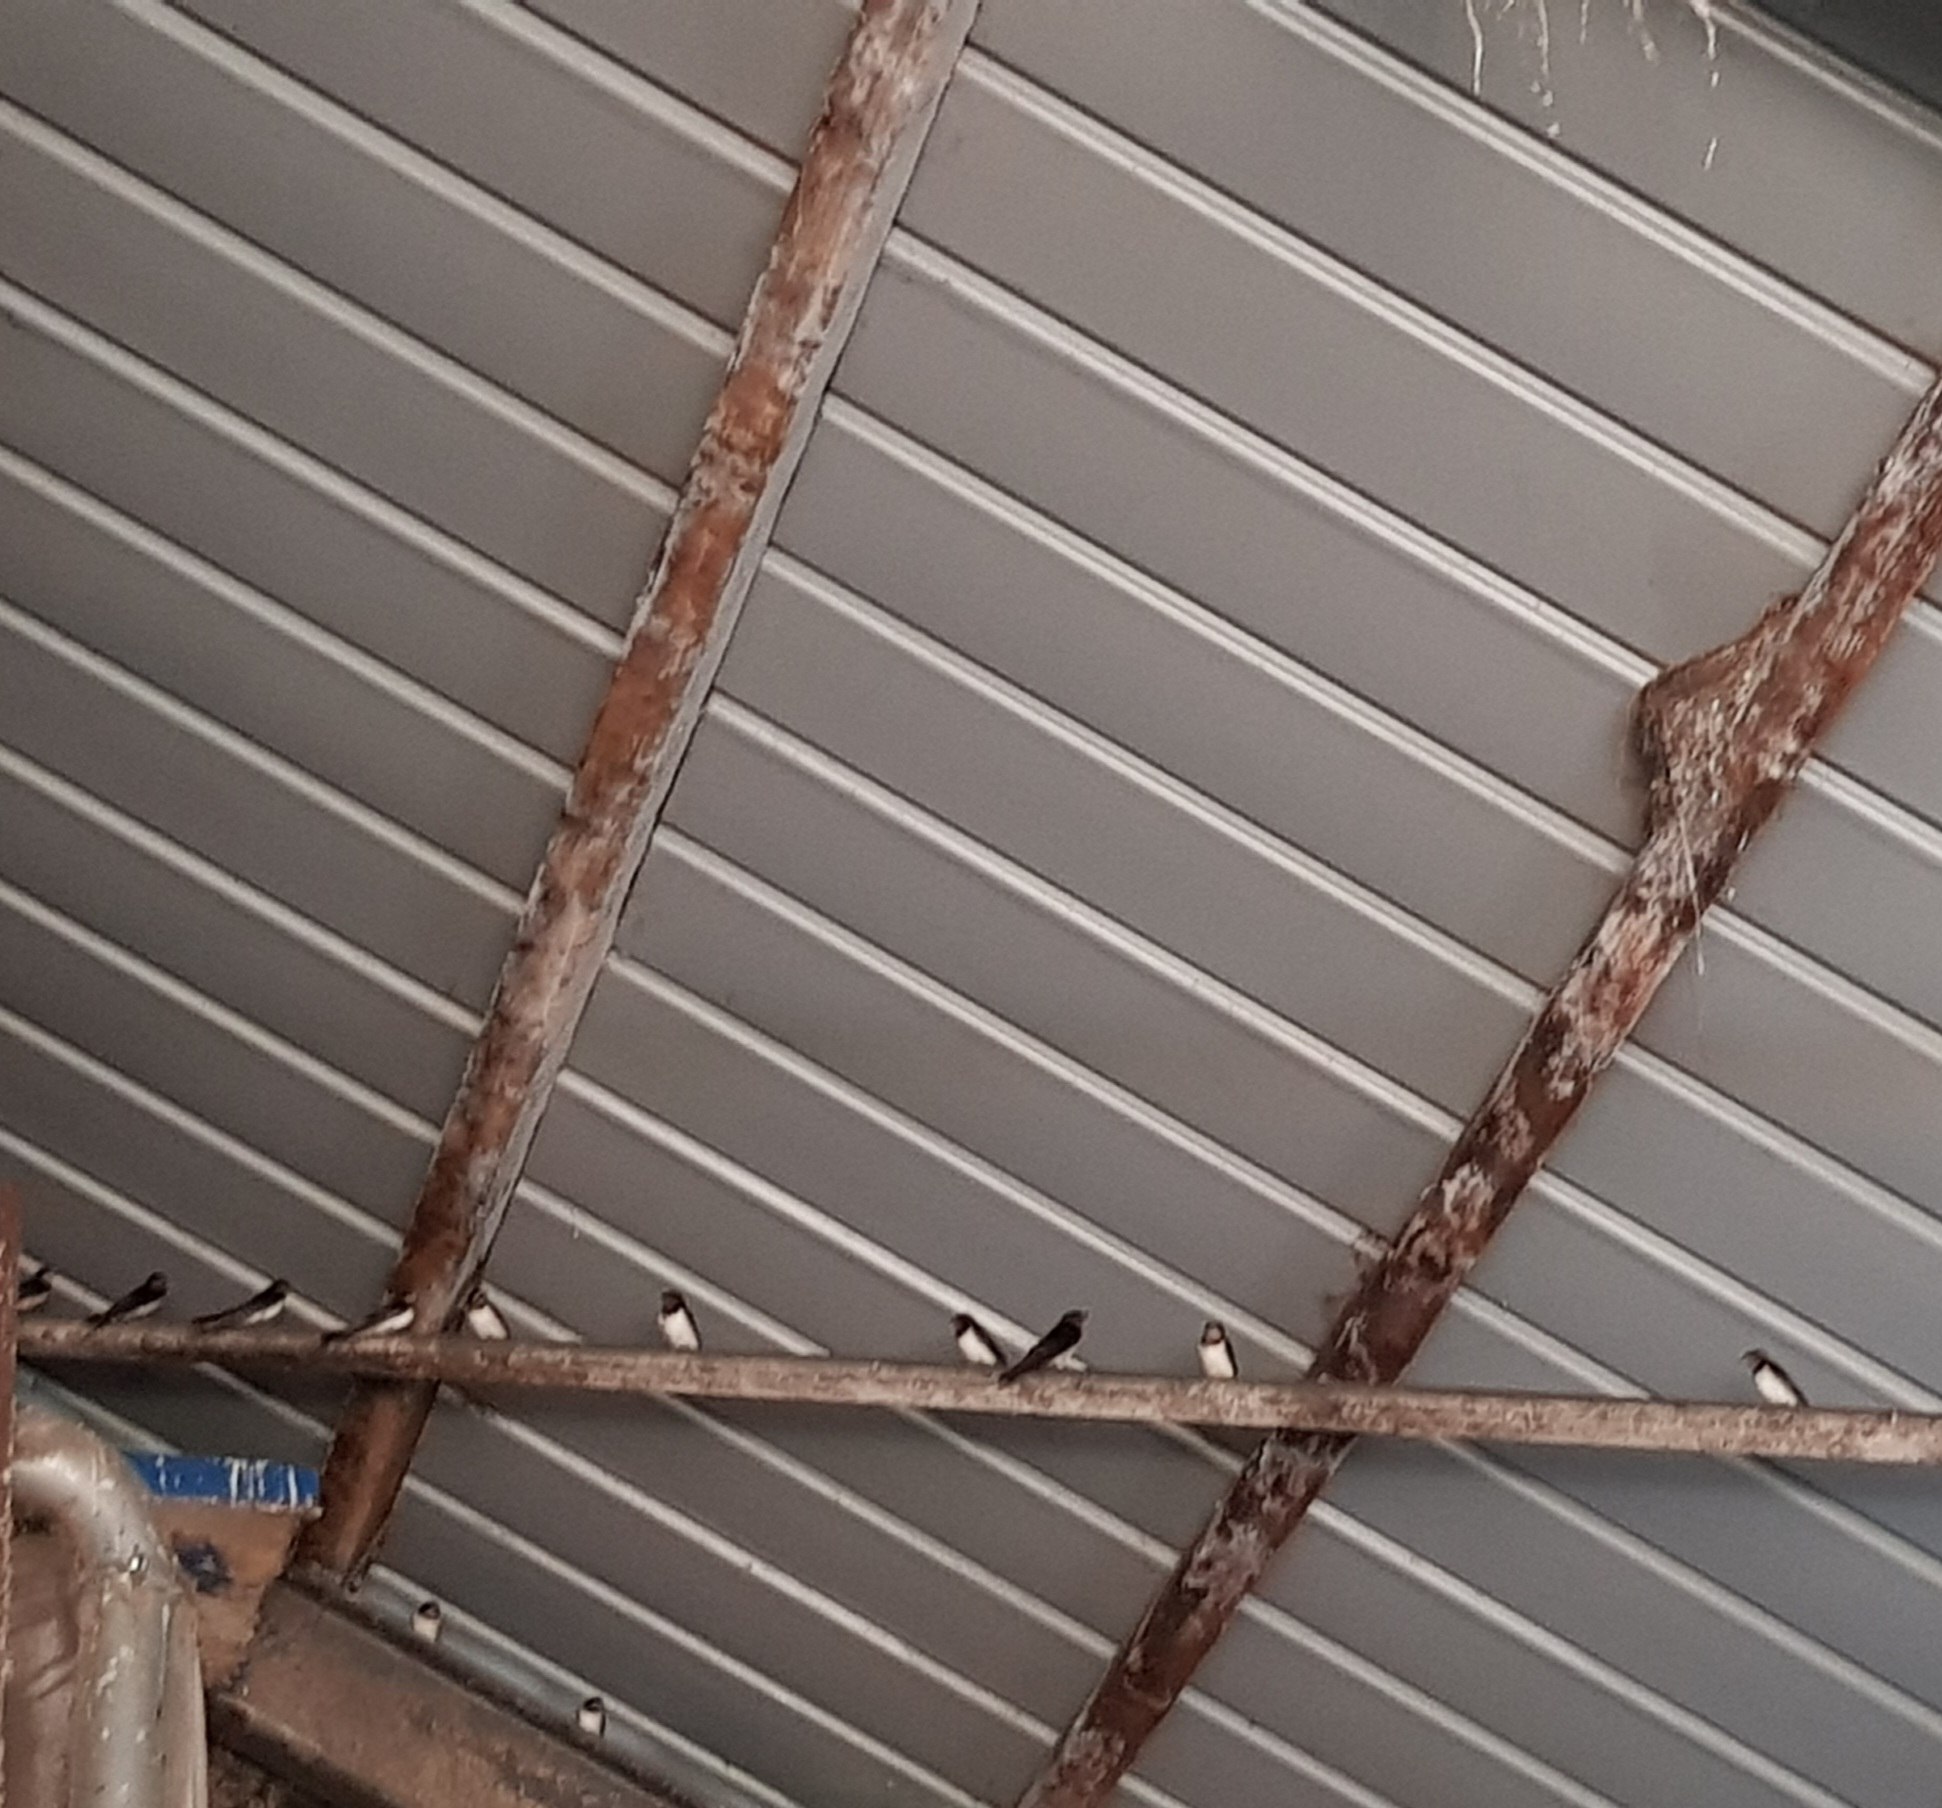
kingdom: Animalia
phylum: Chordata
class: Aves
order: Passeriformes
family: Hirundinidae
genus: Hirundo
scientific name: Hirundo rustica
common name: Landsvale
